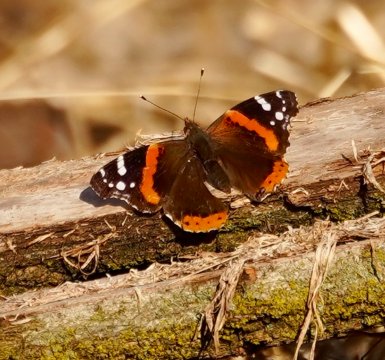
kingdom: Animalia
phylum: Arthropoda
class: Insecta
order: Lepidoptera
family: Nymphalidae
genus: Vanessa
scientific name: Vanessa atalanta
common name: Red Admiral
